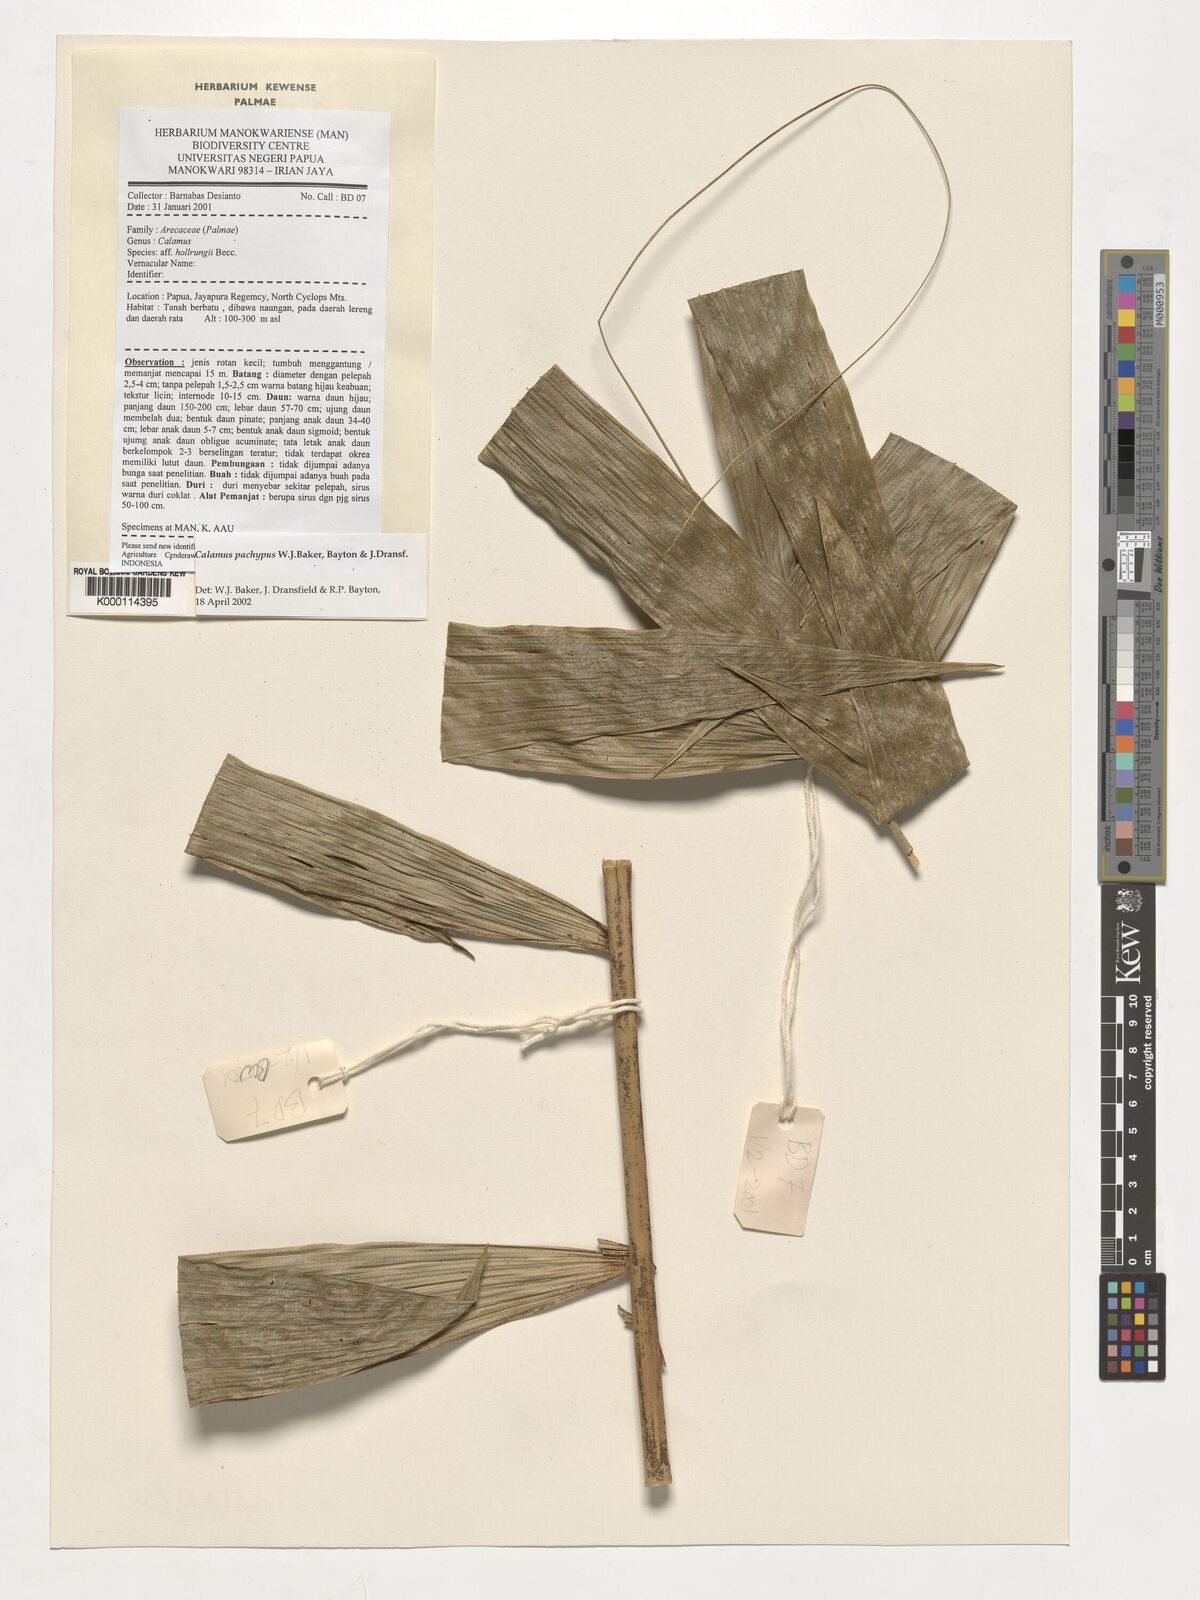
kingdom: Plantae
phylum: Tracheophyta
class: Liliopsida
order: Arecales
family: Arecaceae
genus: Calamus
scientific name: Calamus
